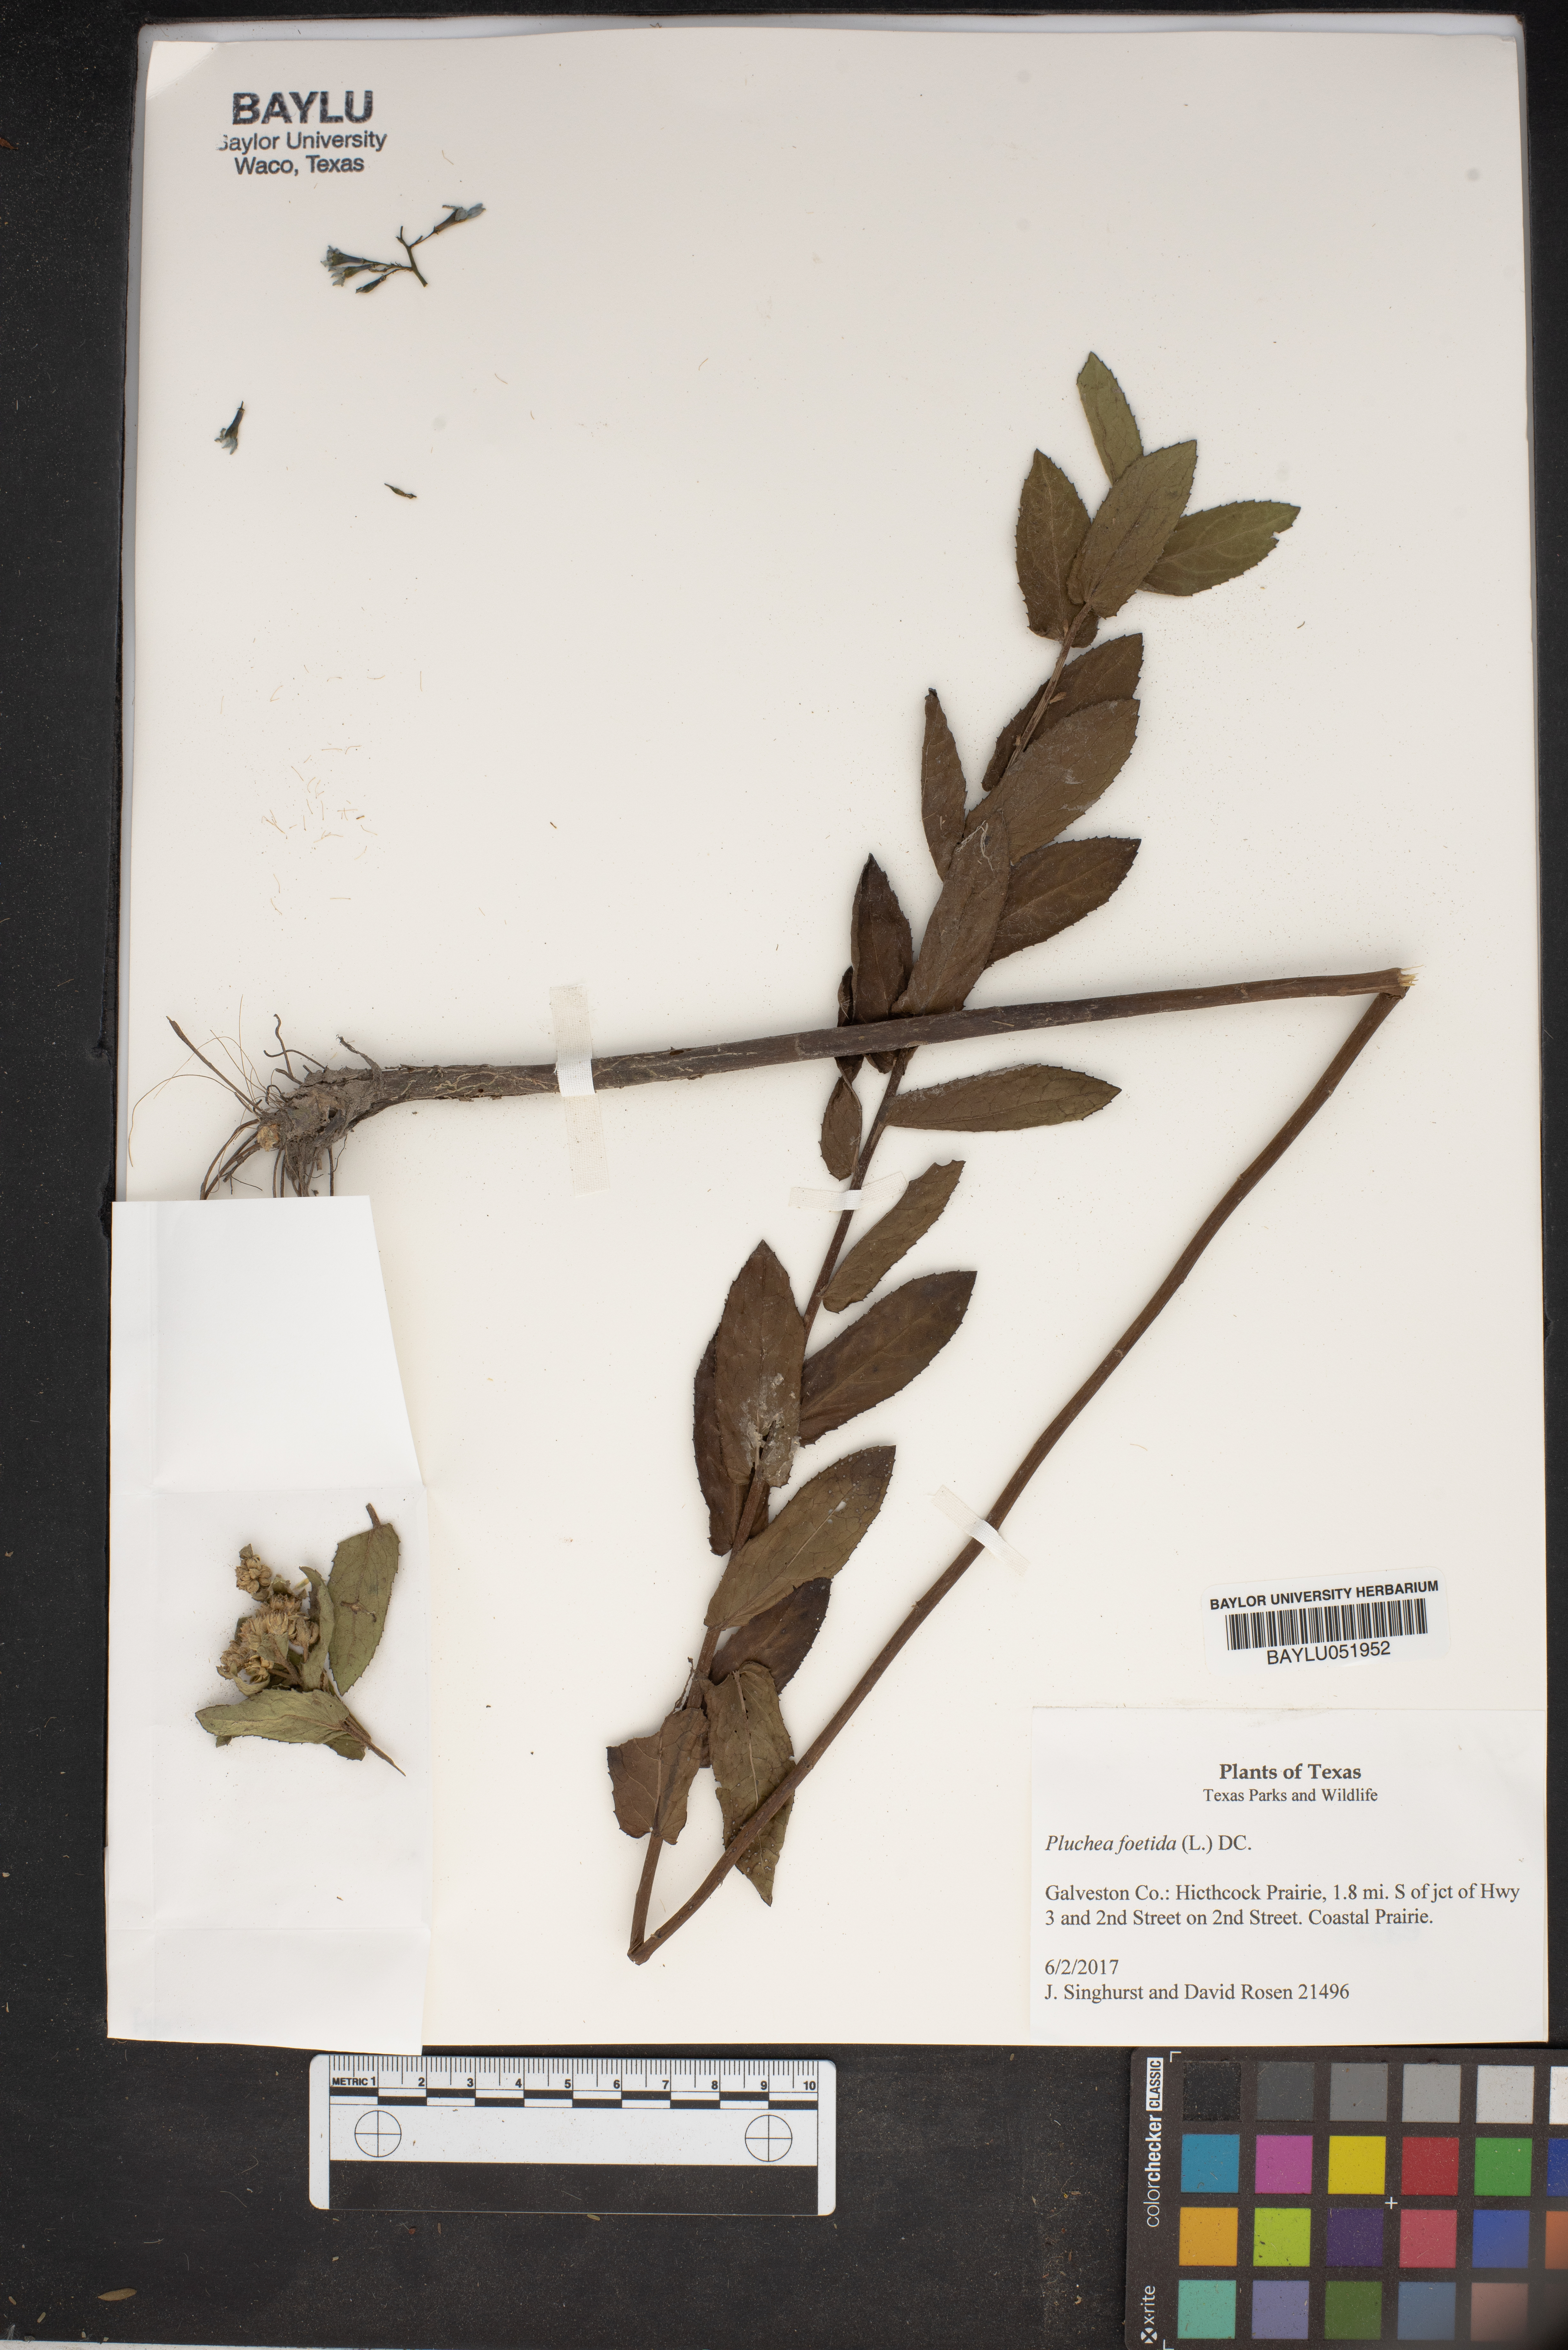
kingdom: Plantae
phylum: Tracheophyta
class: Magnoliopsida
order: Asterales
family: Asteraceae
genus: Pluchea
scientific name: Pluchea foetida
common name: Stinking camphorweed
